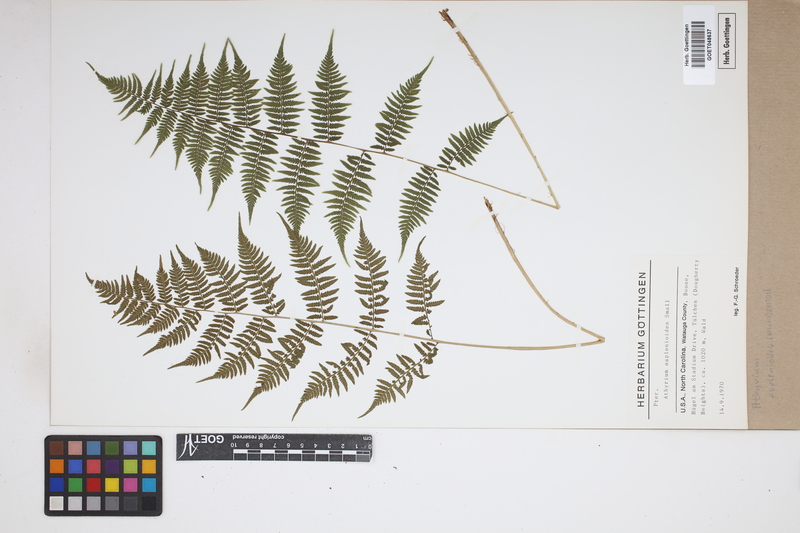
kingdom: Plantae
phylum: Tracheophyta
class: Polypodiopsida
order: Polypodiales
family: Athyriaceae
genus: Athyrium
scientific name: Athyrium asplenioides
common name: Southern lady fern
